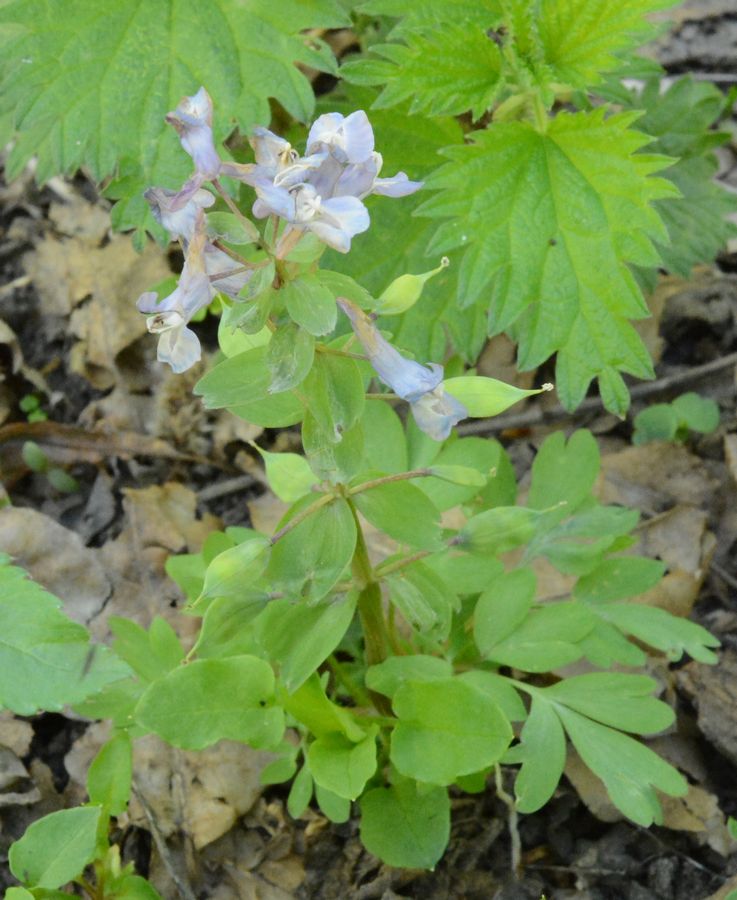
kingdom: Plantae
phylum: Tracheophyta
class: Magnoliopsida
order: Ranunculales
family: Papaveraceae
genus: Corydalis
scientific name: Corydalis solida
